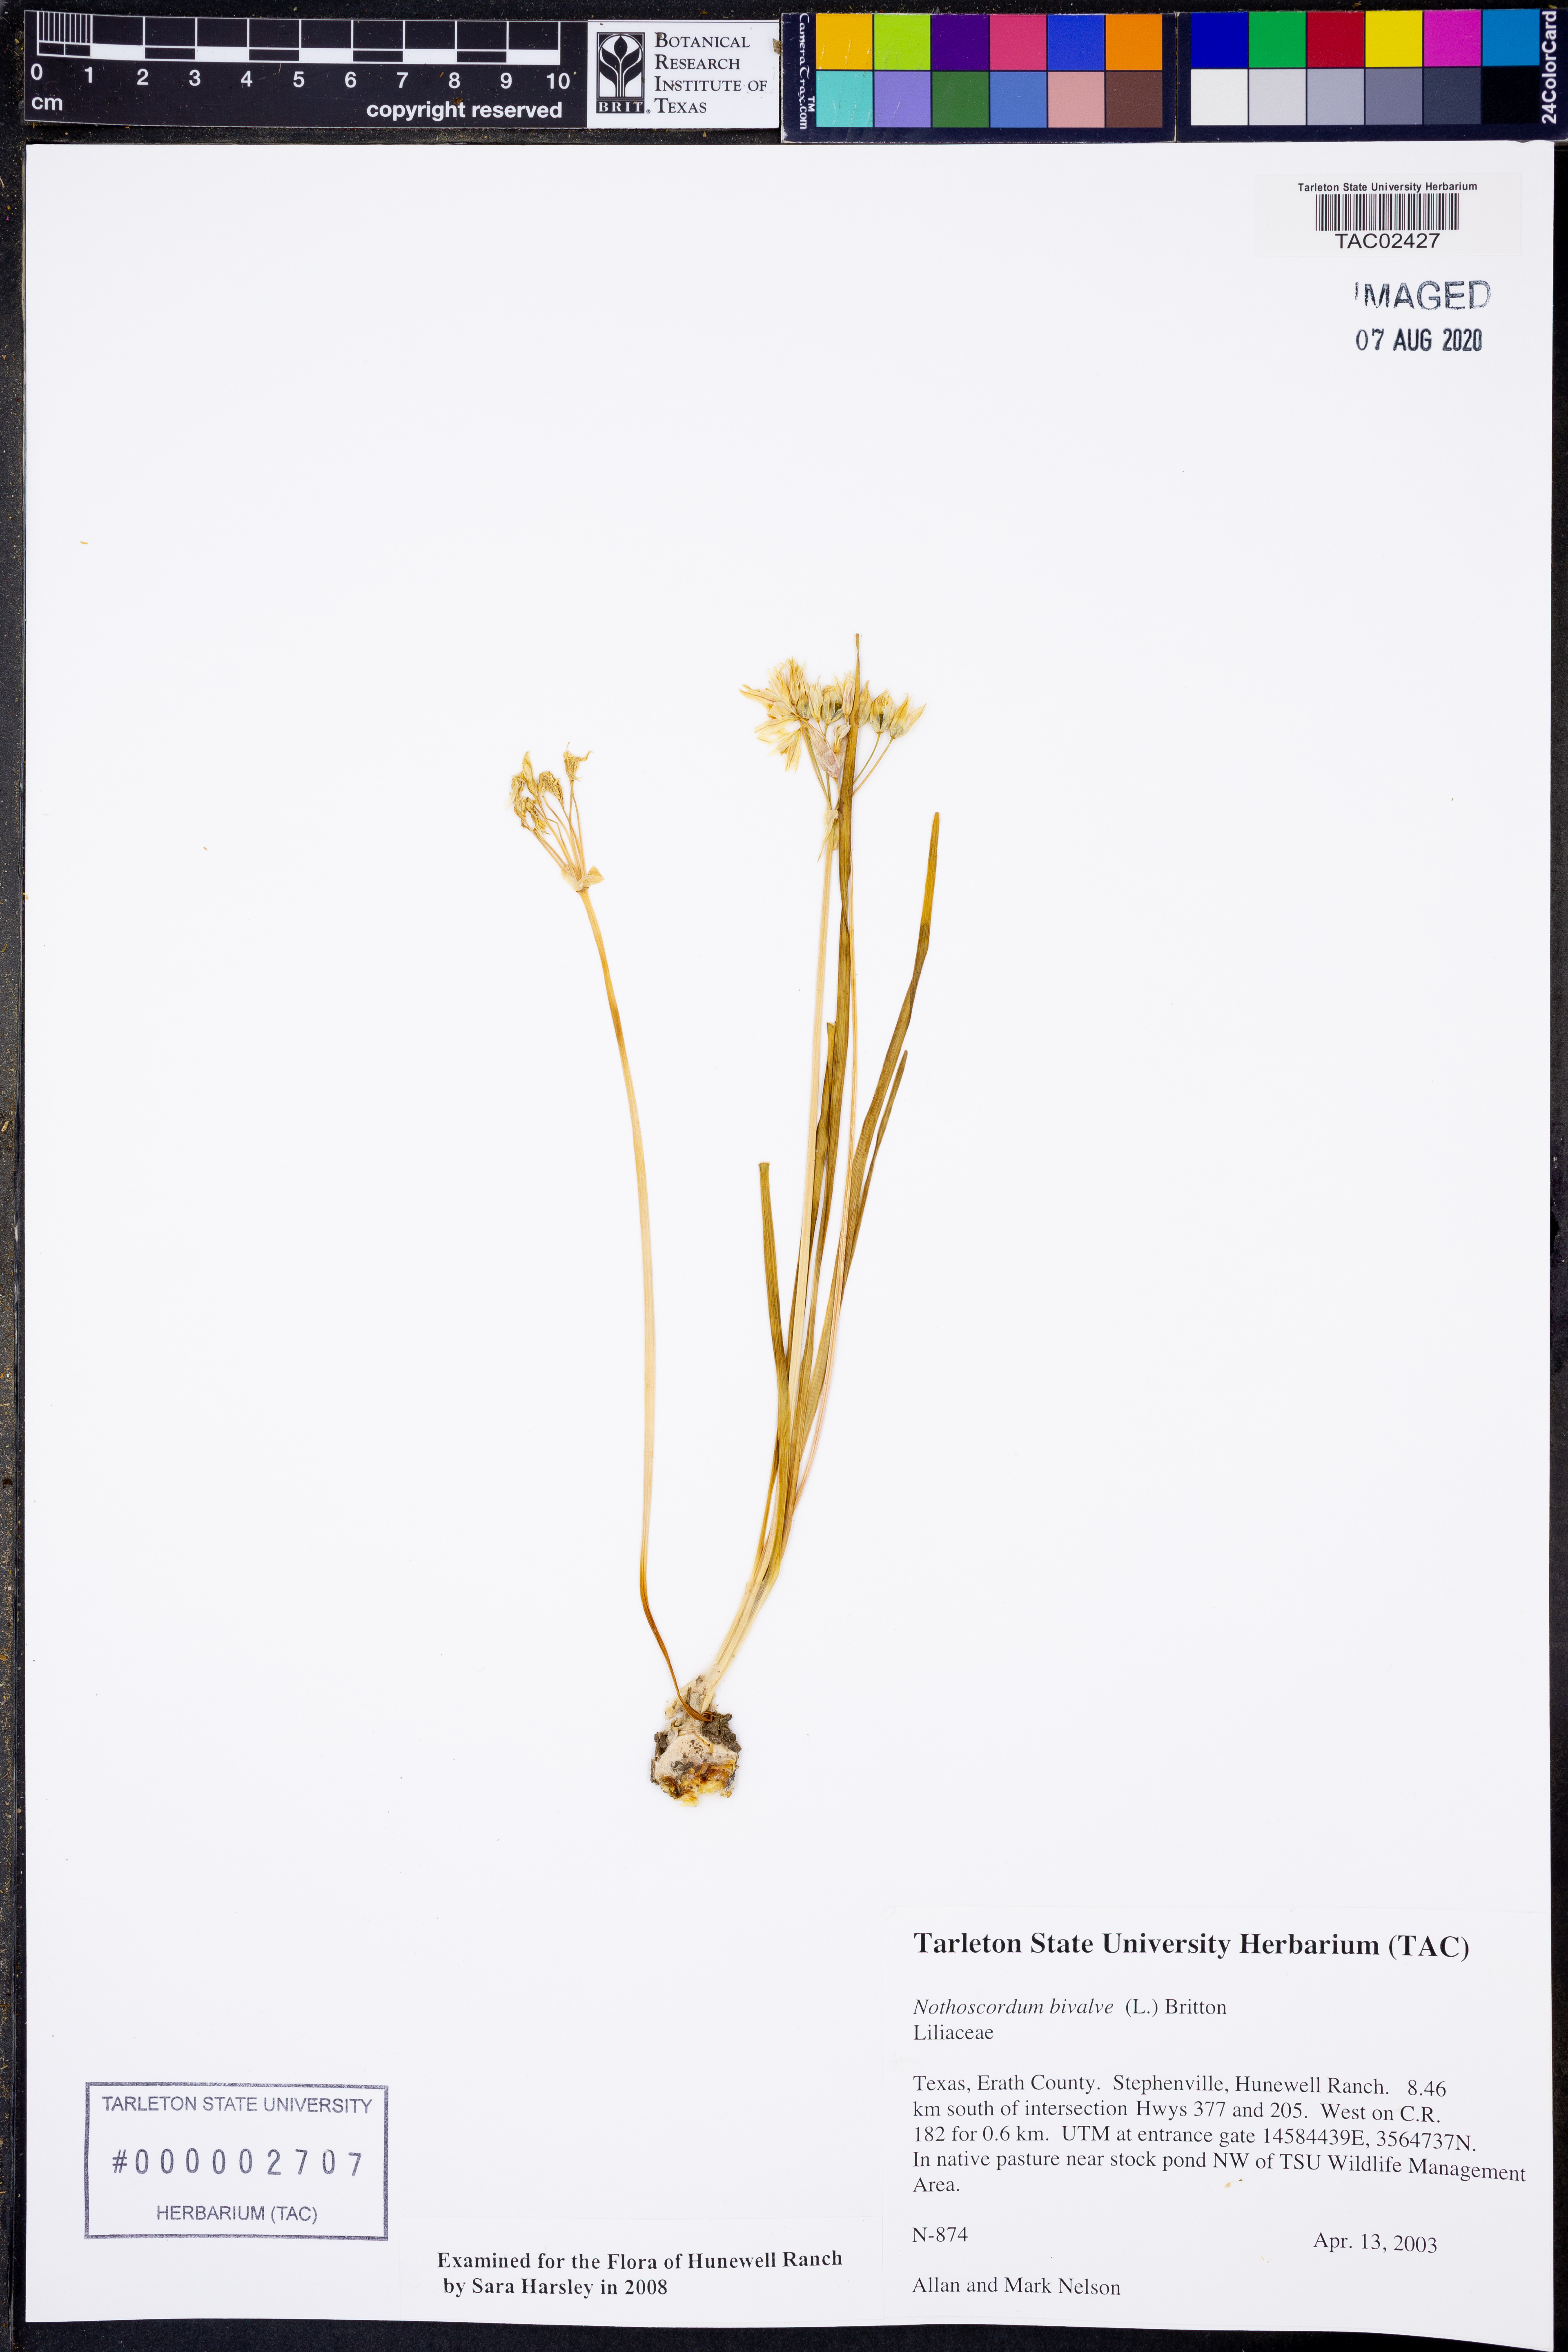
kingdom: Plantae
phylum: Tracheophyta
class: Liliopsida
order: Asparagales
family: Amaryllidaceae
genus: Nothoscordum
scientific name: Nothoscordum bivalve
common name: Crow-poison
